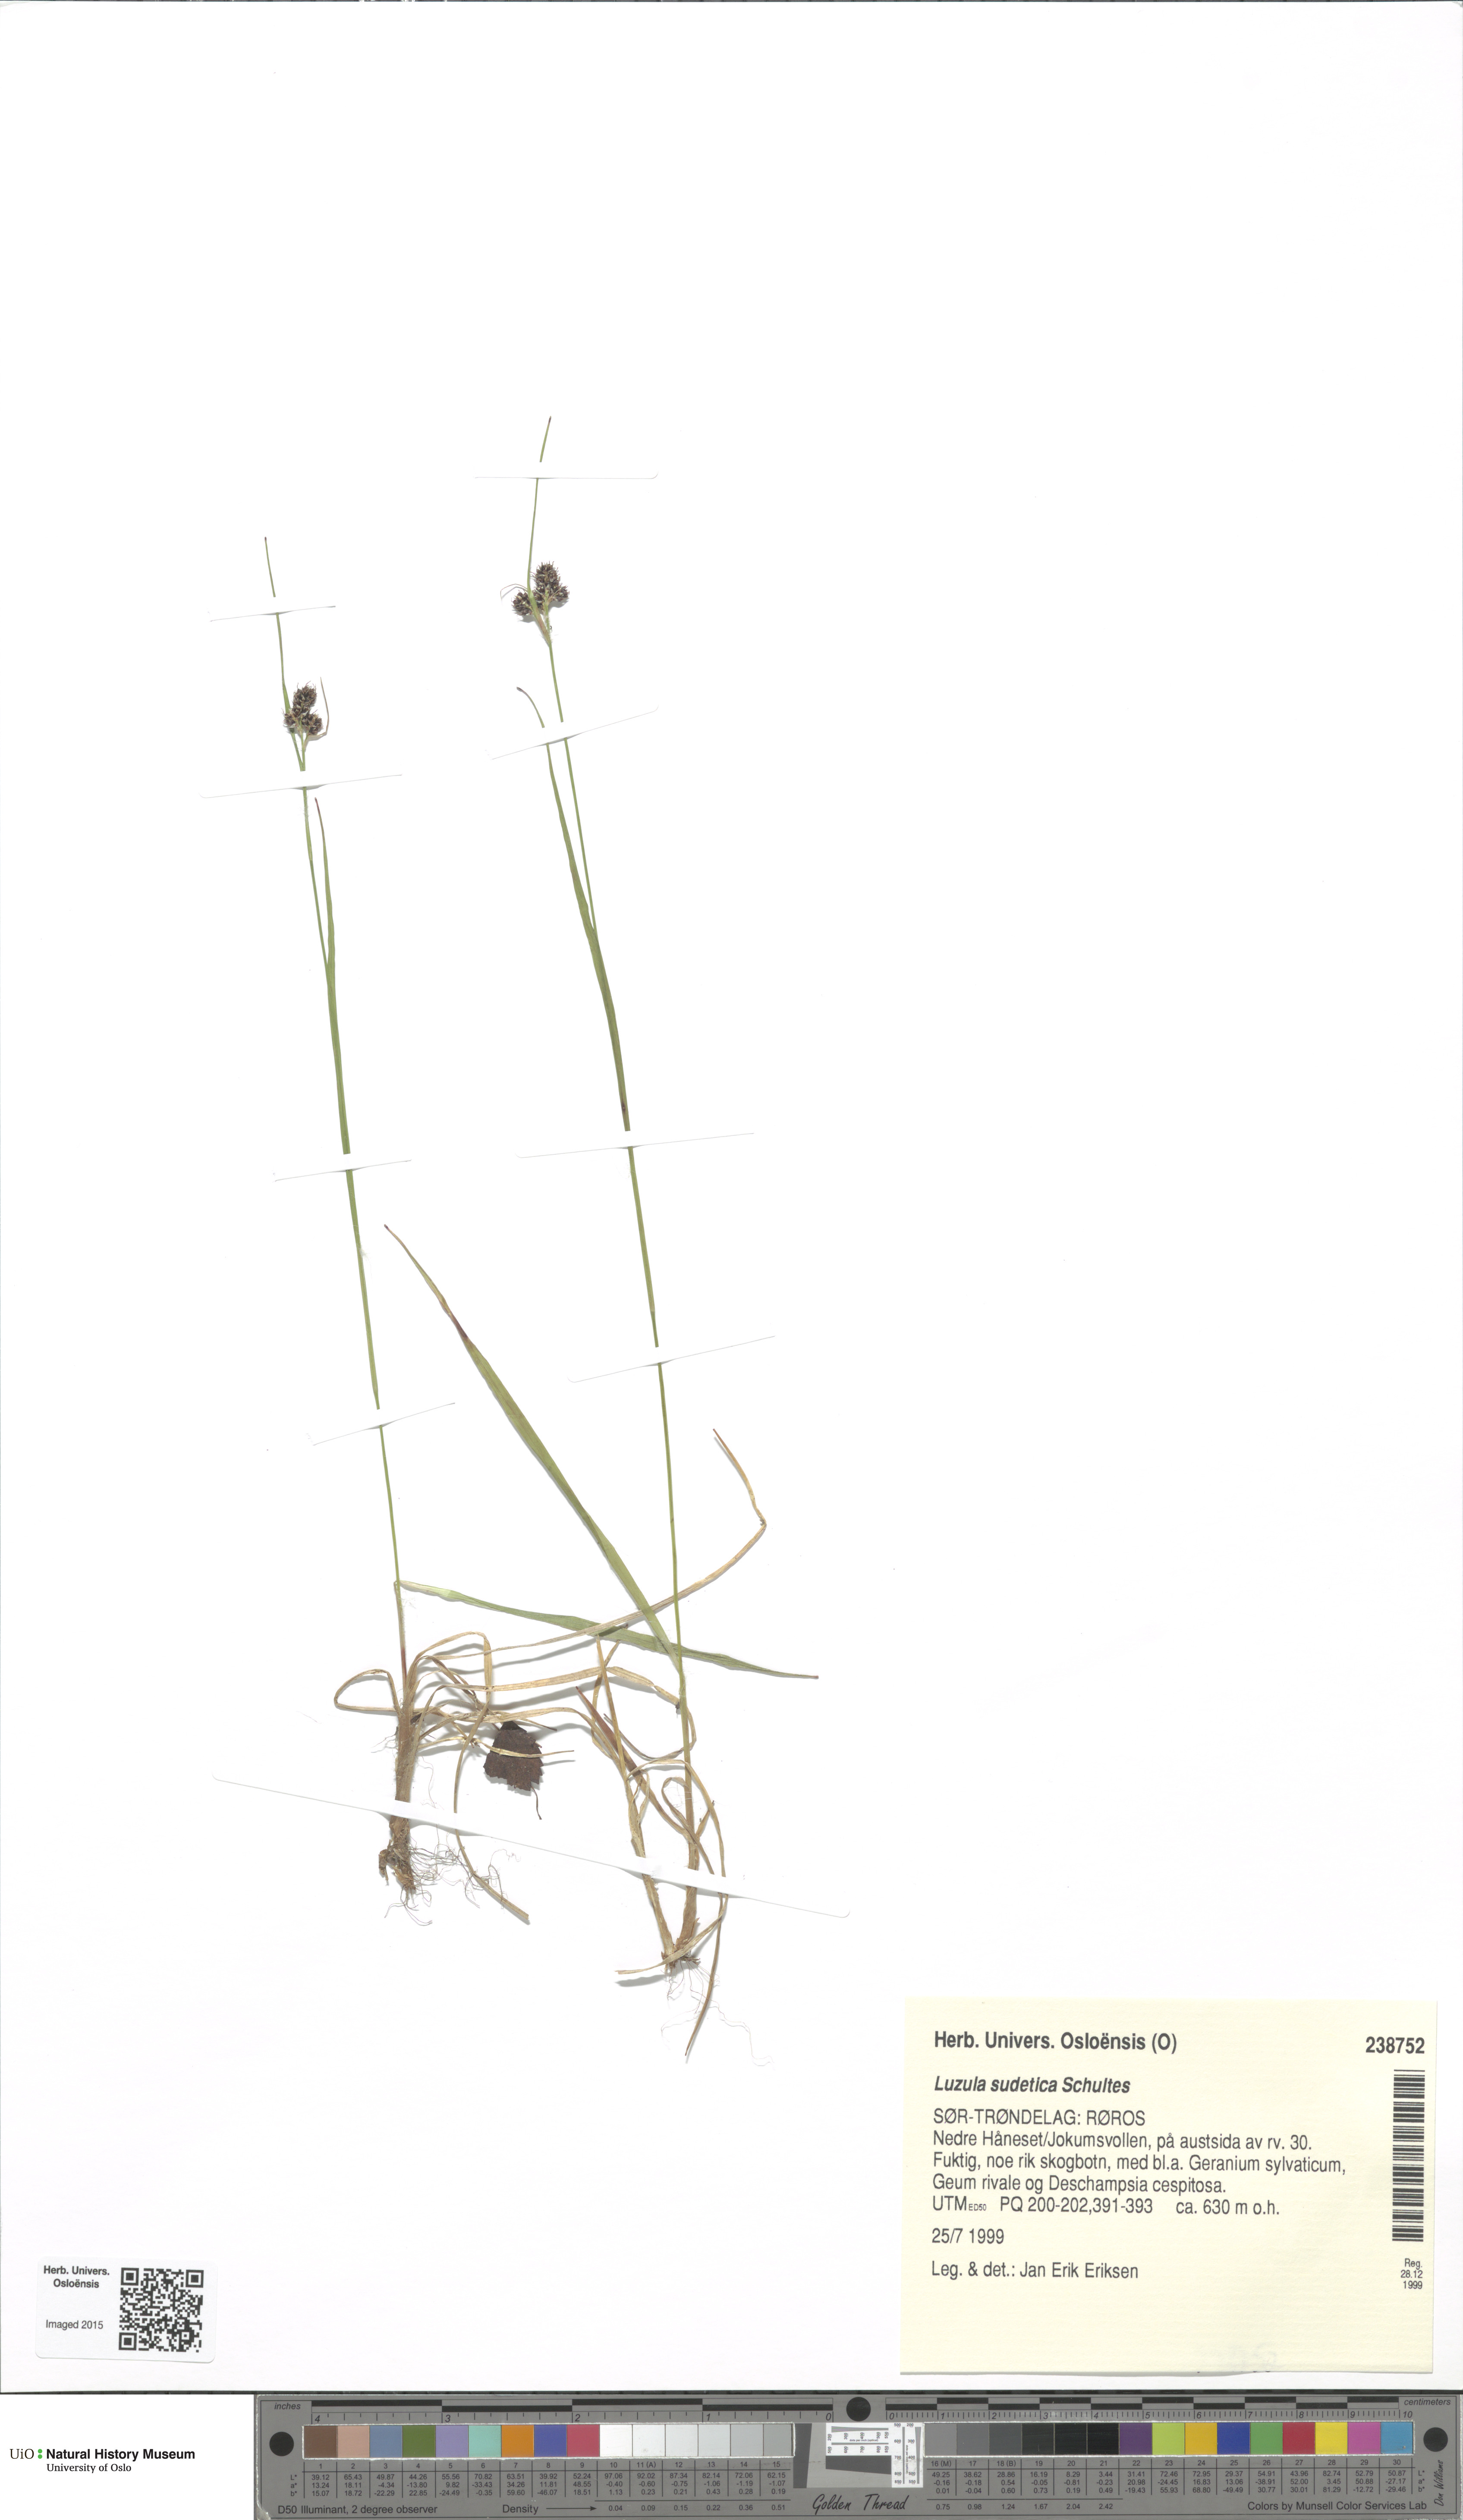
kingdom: Plantae
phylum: Tracheophyta
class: Liliopsida
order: Poales
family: Juncaceae
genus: Luzula
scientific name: Luzula sudetica
